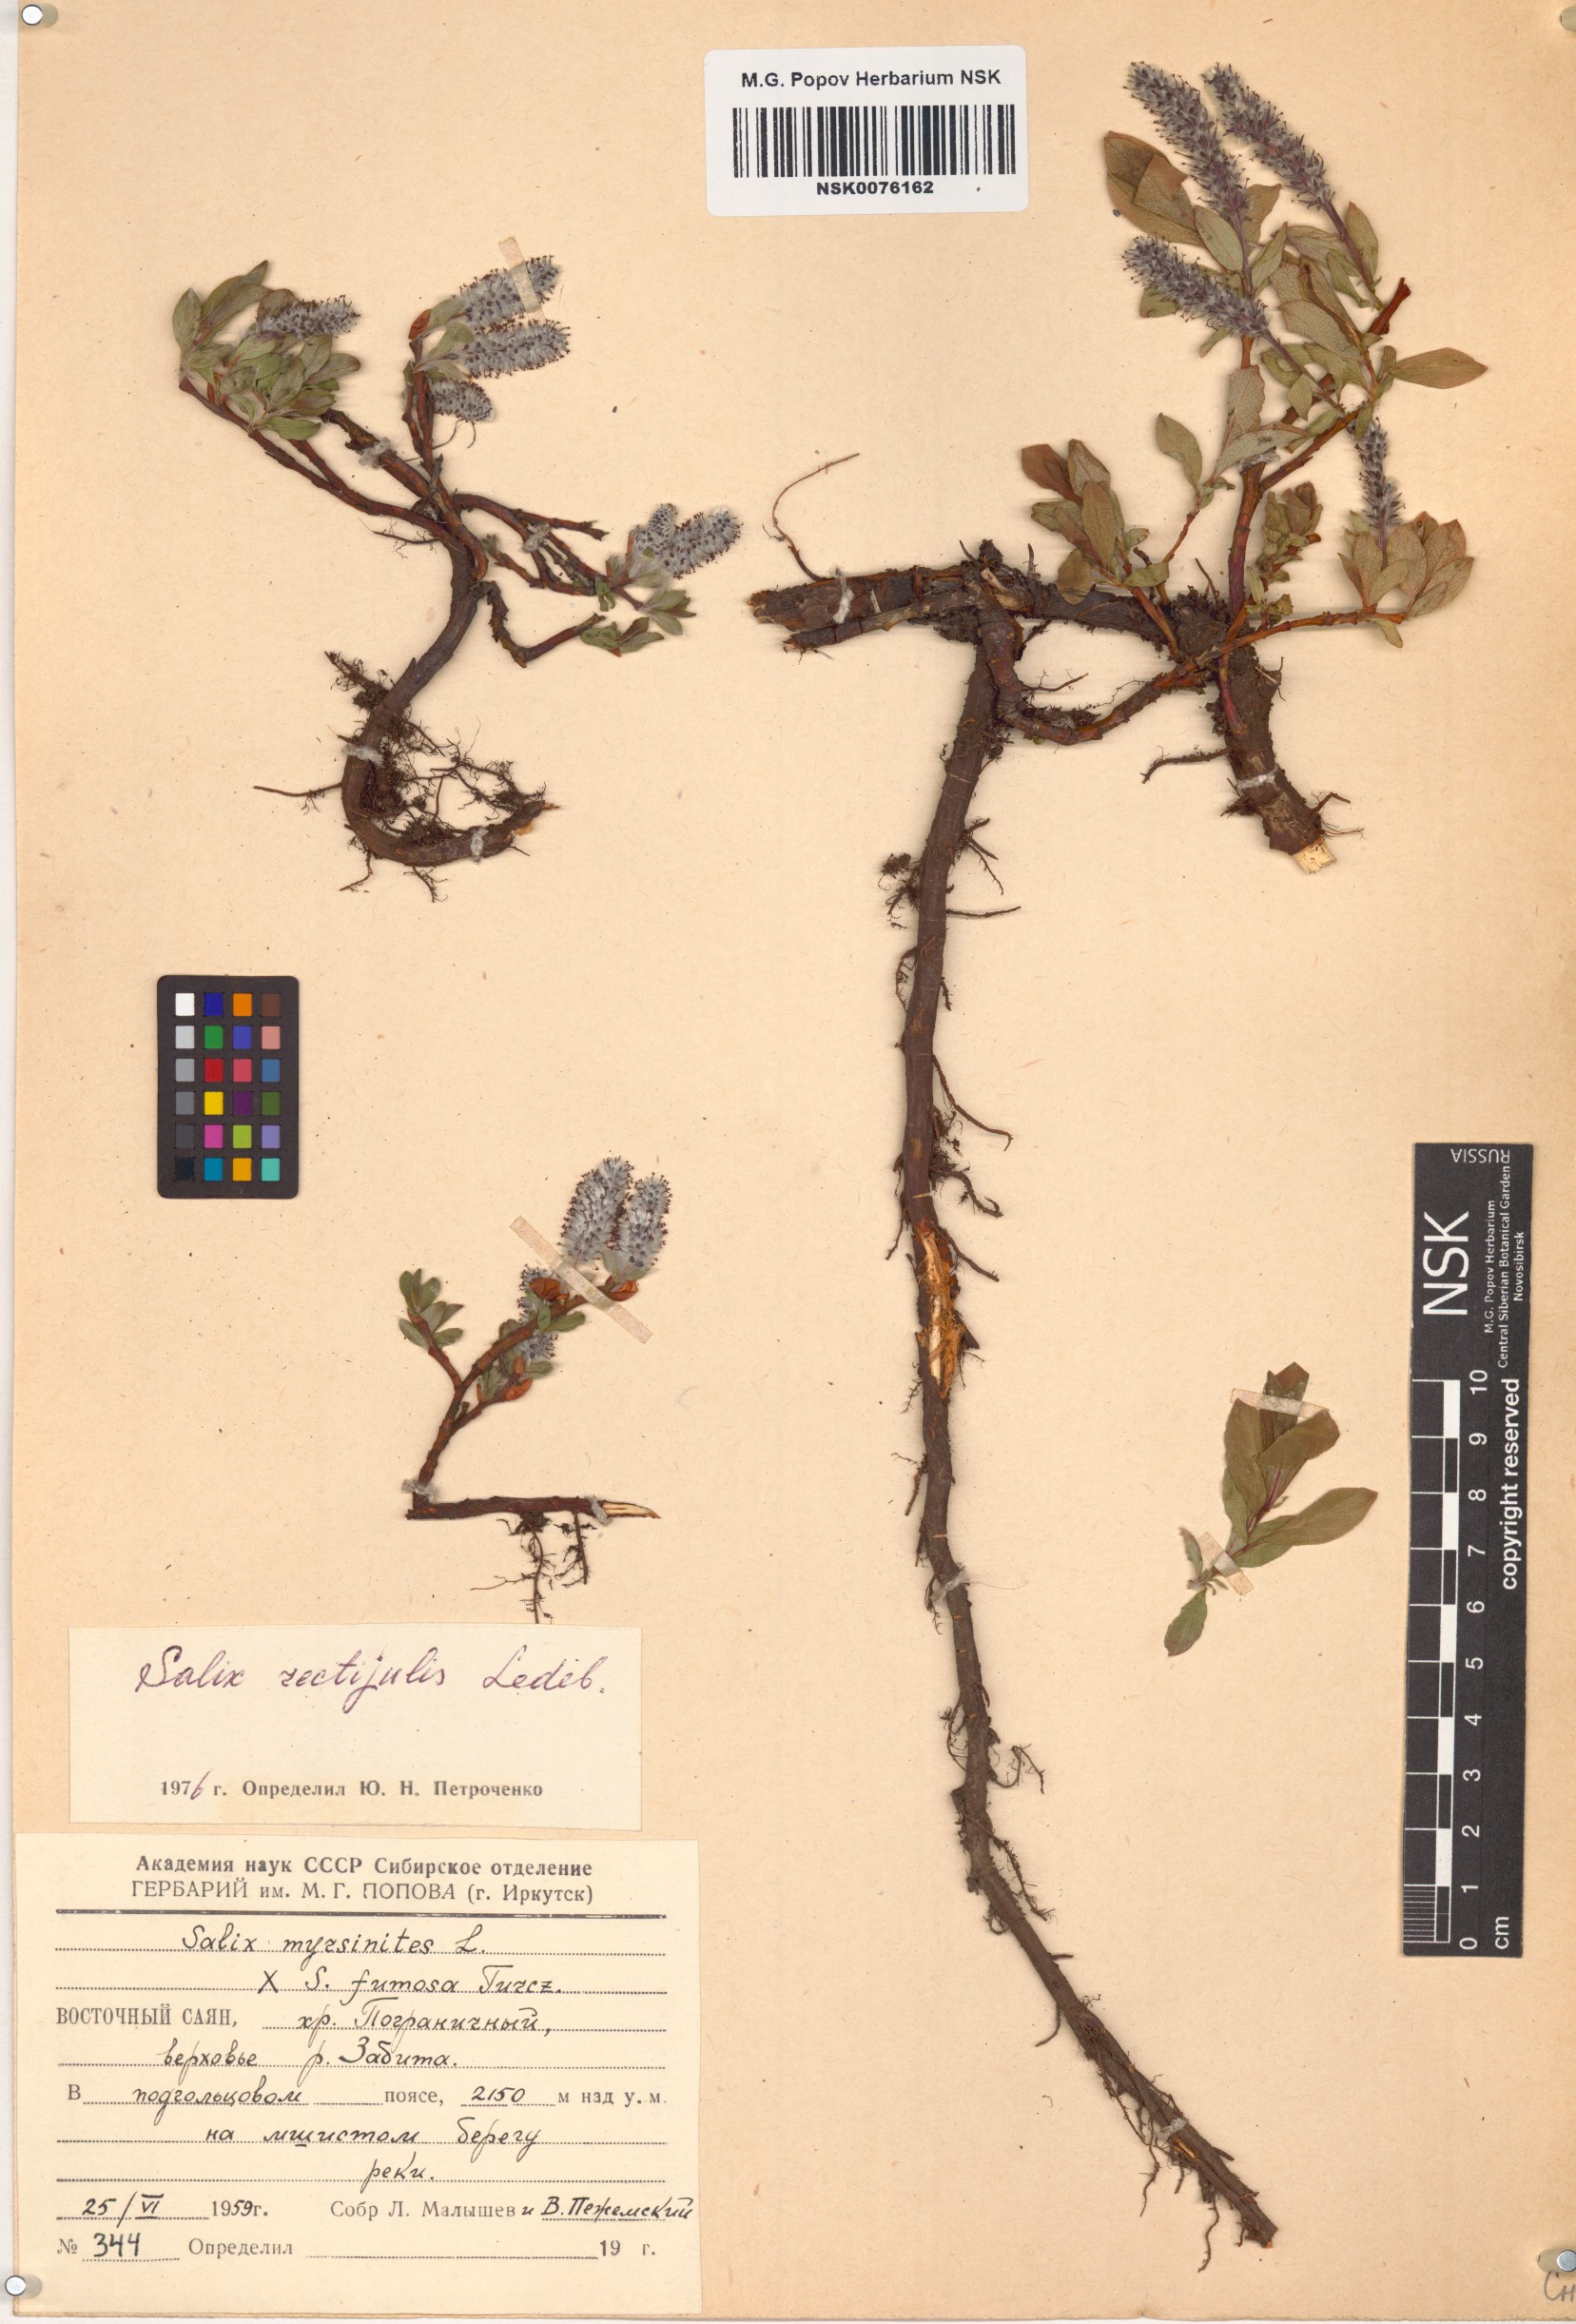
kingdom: Plantae
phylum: Tracheophyta
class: Magnoliopsida
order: Malpighiales
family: Salicaceae
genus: Salix
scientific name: Salix rectijulis
